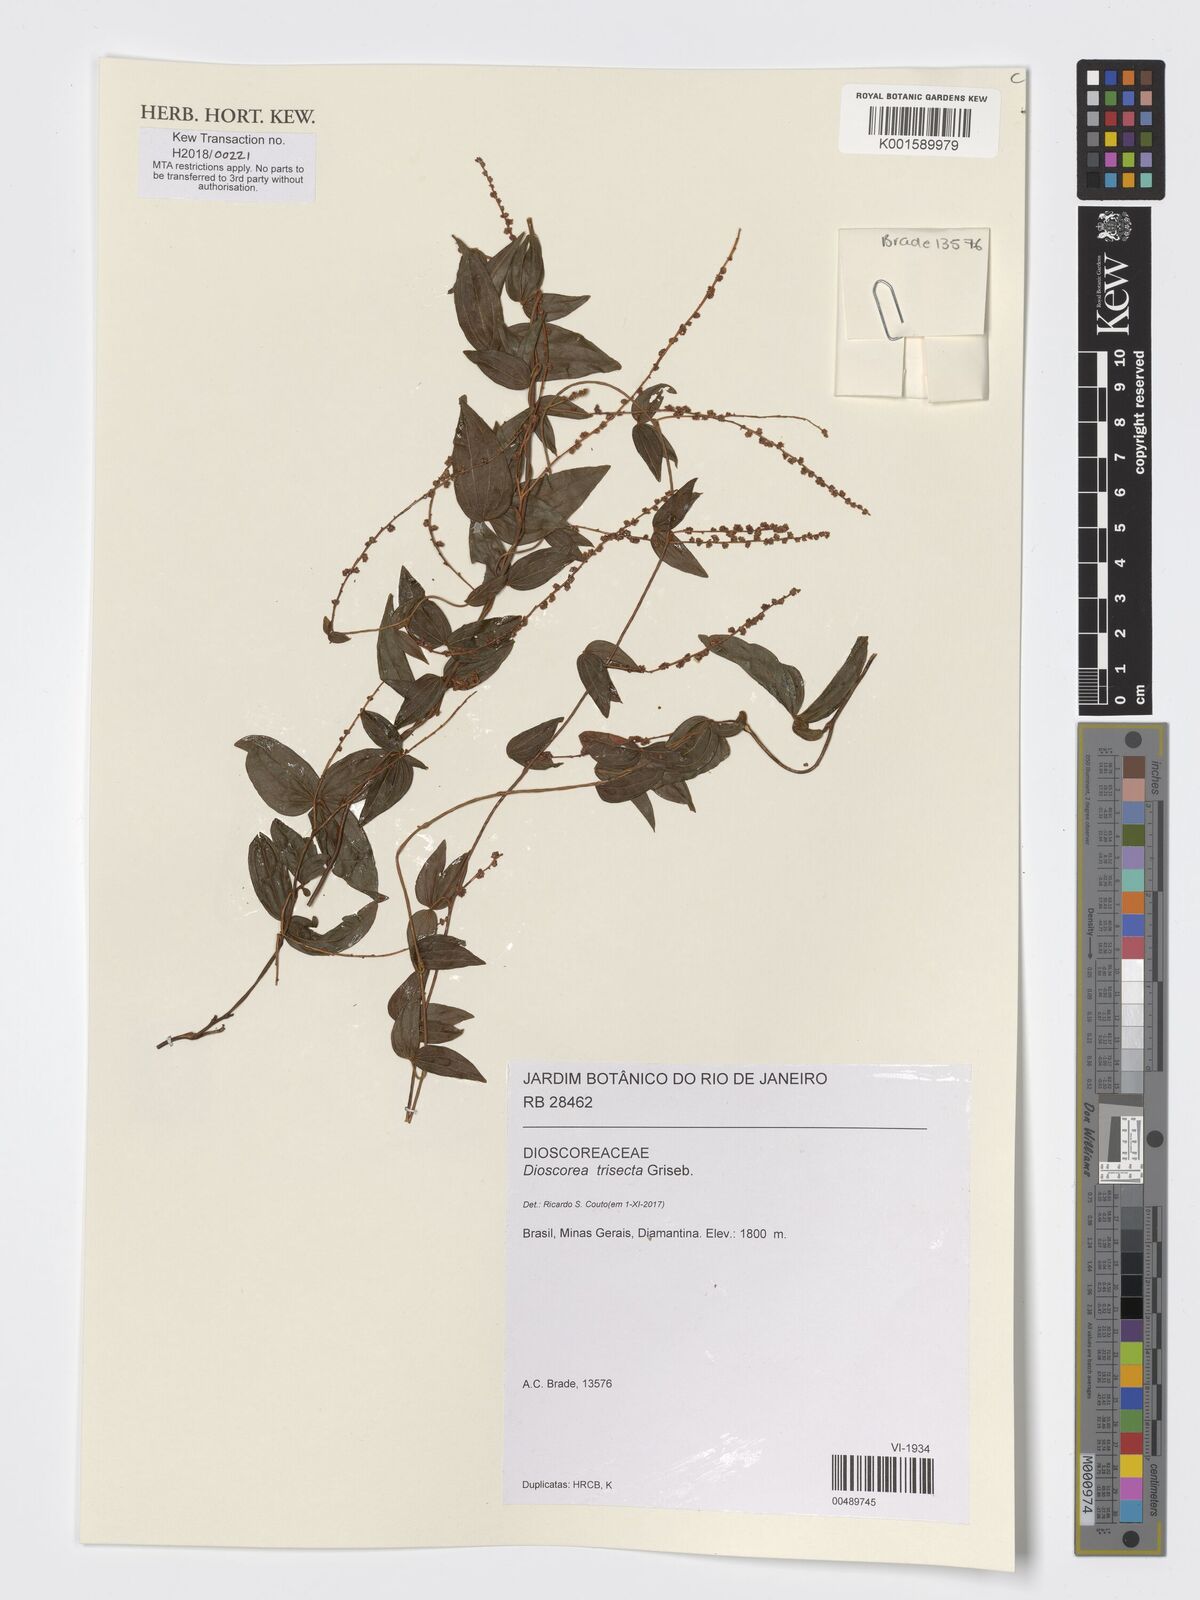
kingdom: Plantae
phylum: Tracheophyta
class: Liliopsida
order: Dioscoreales
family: Dioscoreaceae
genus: Dioscorea
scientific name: Dioscorea trisecta
